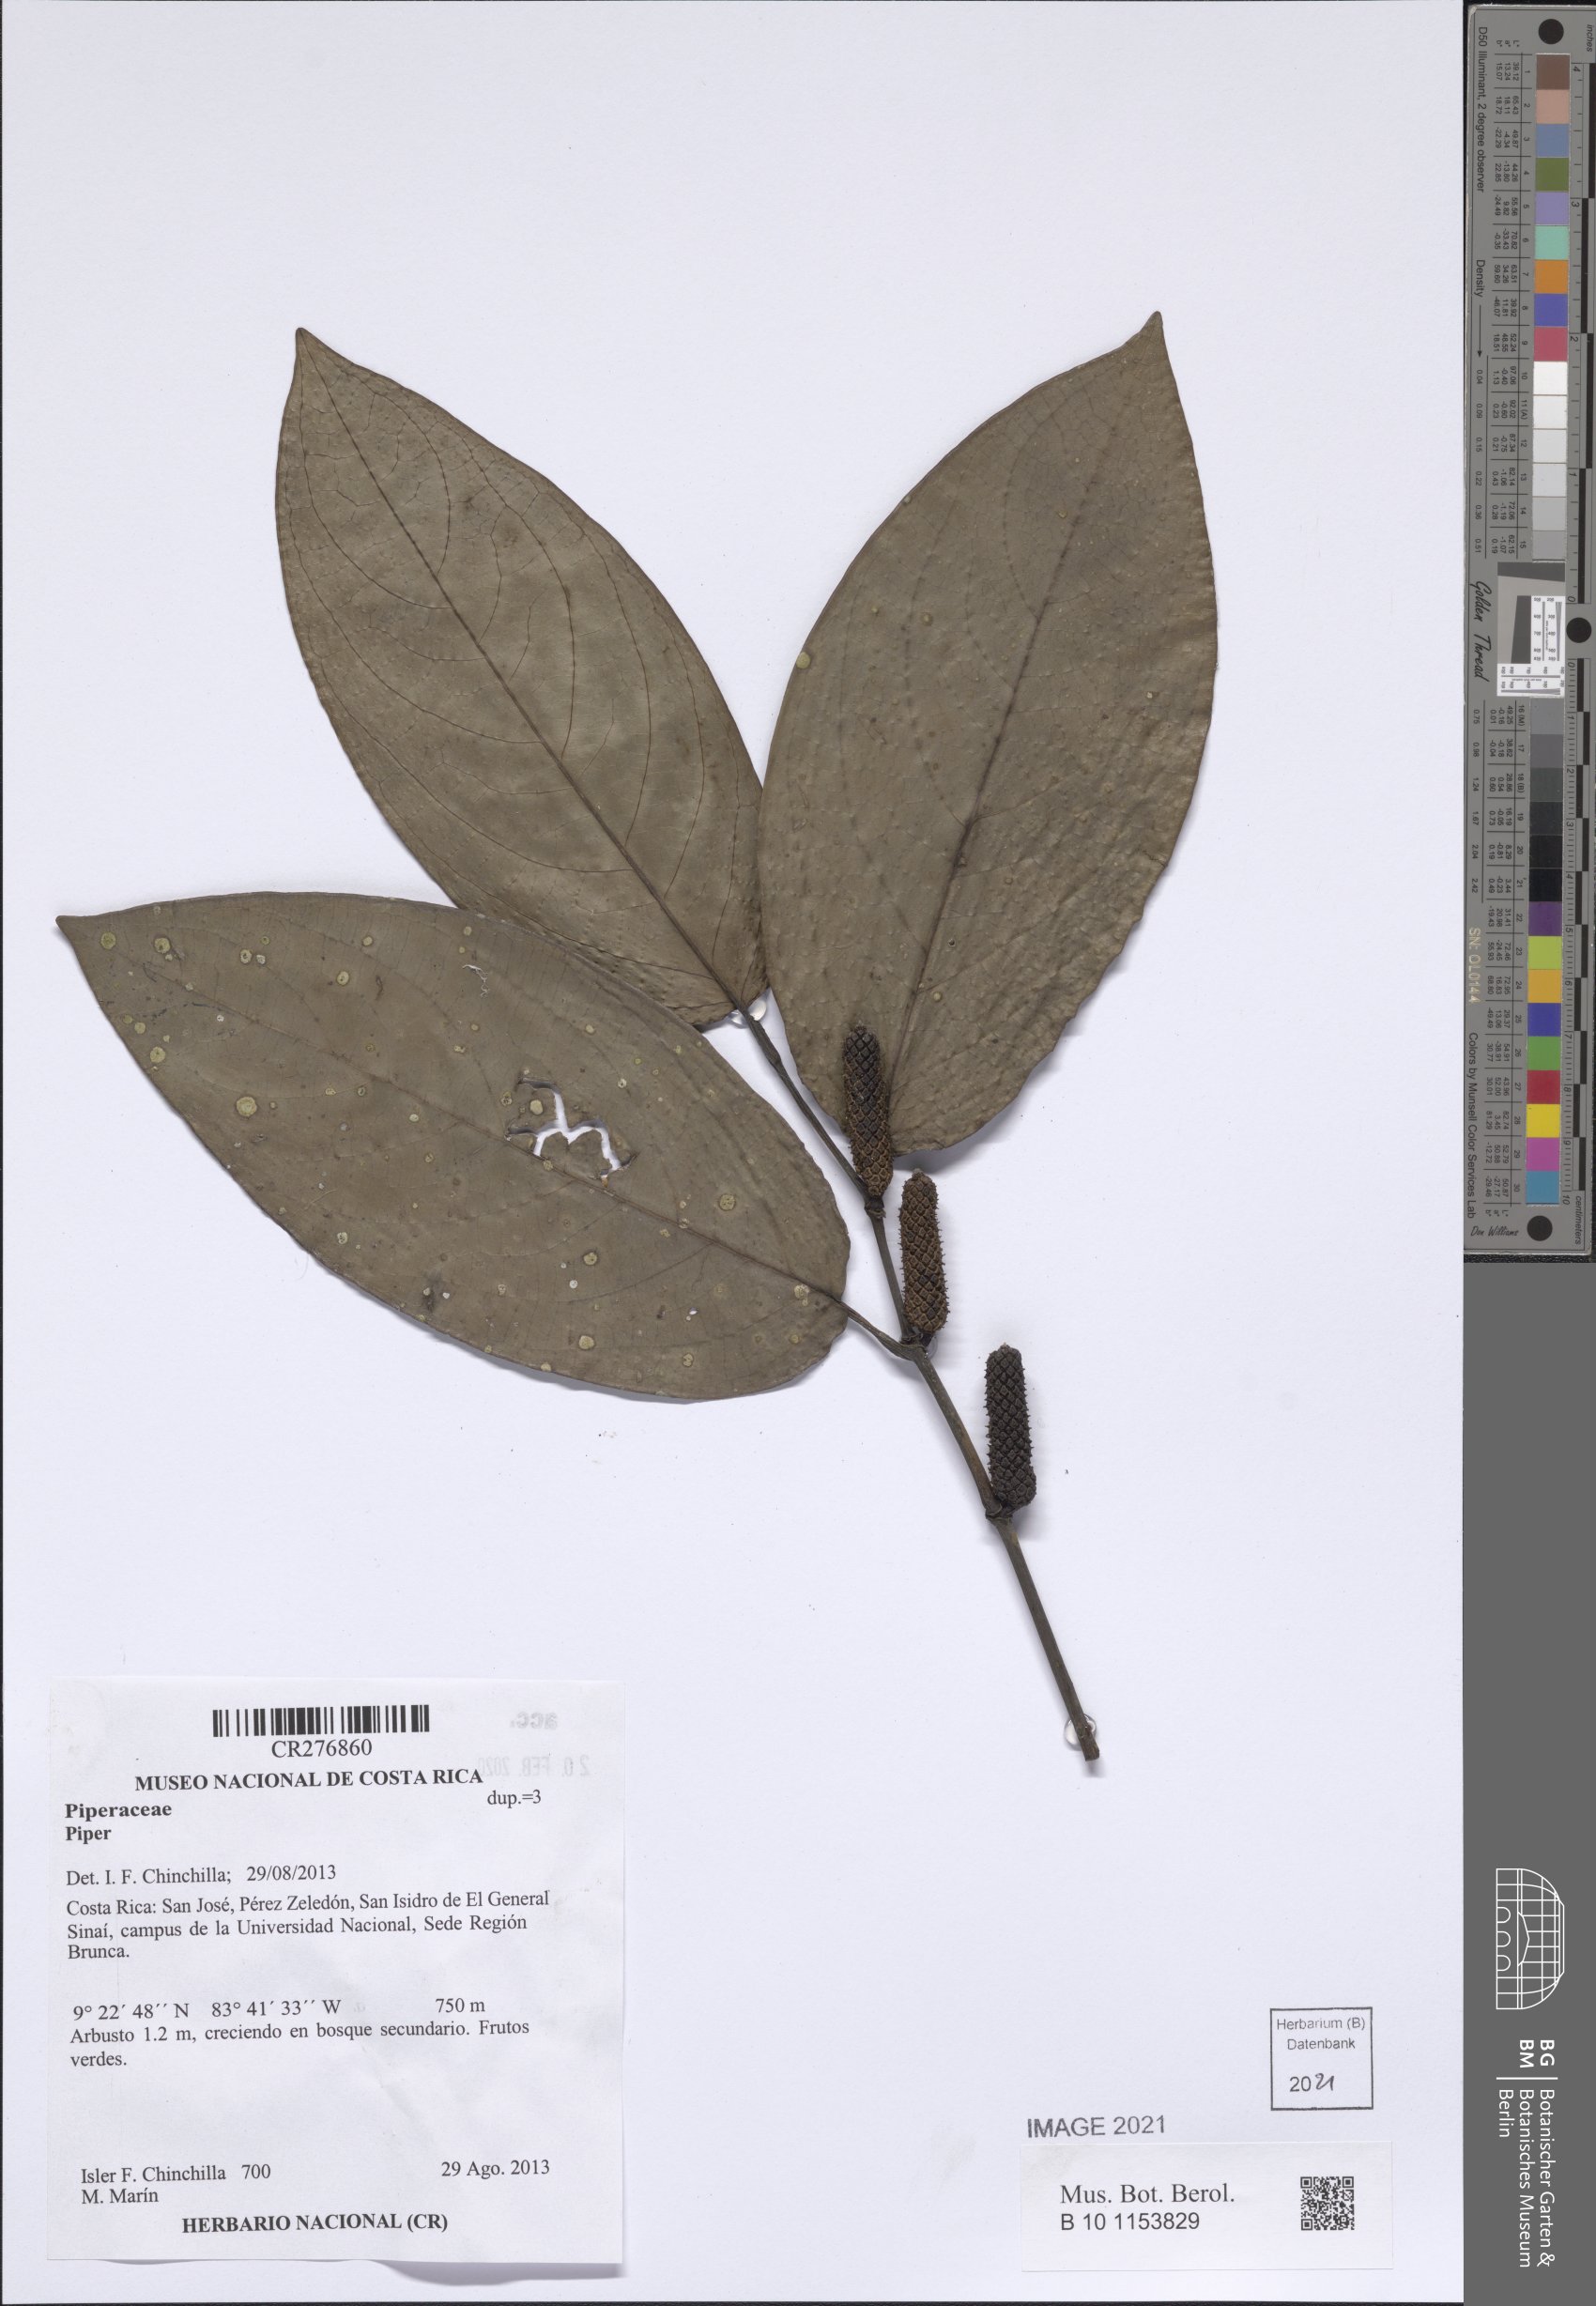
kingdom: Plantae
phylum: Tracheophyta
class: Magnoliopsida
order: Piperales
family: Piperaceae
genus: Piper
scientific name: Piper
